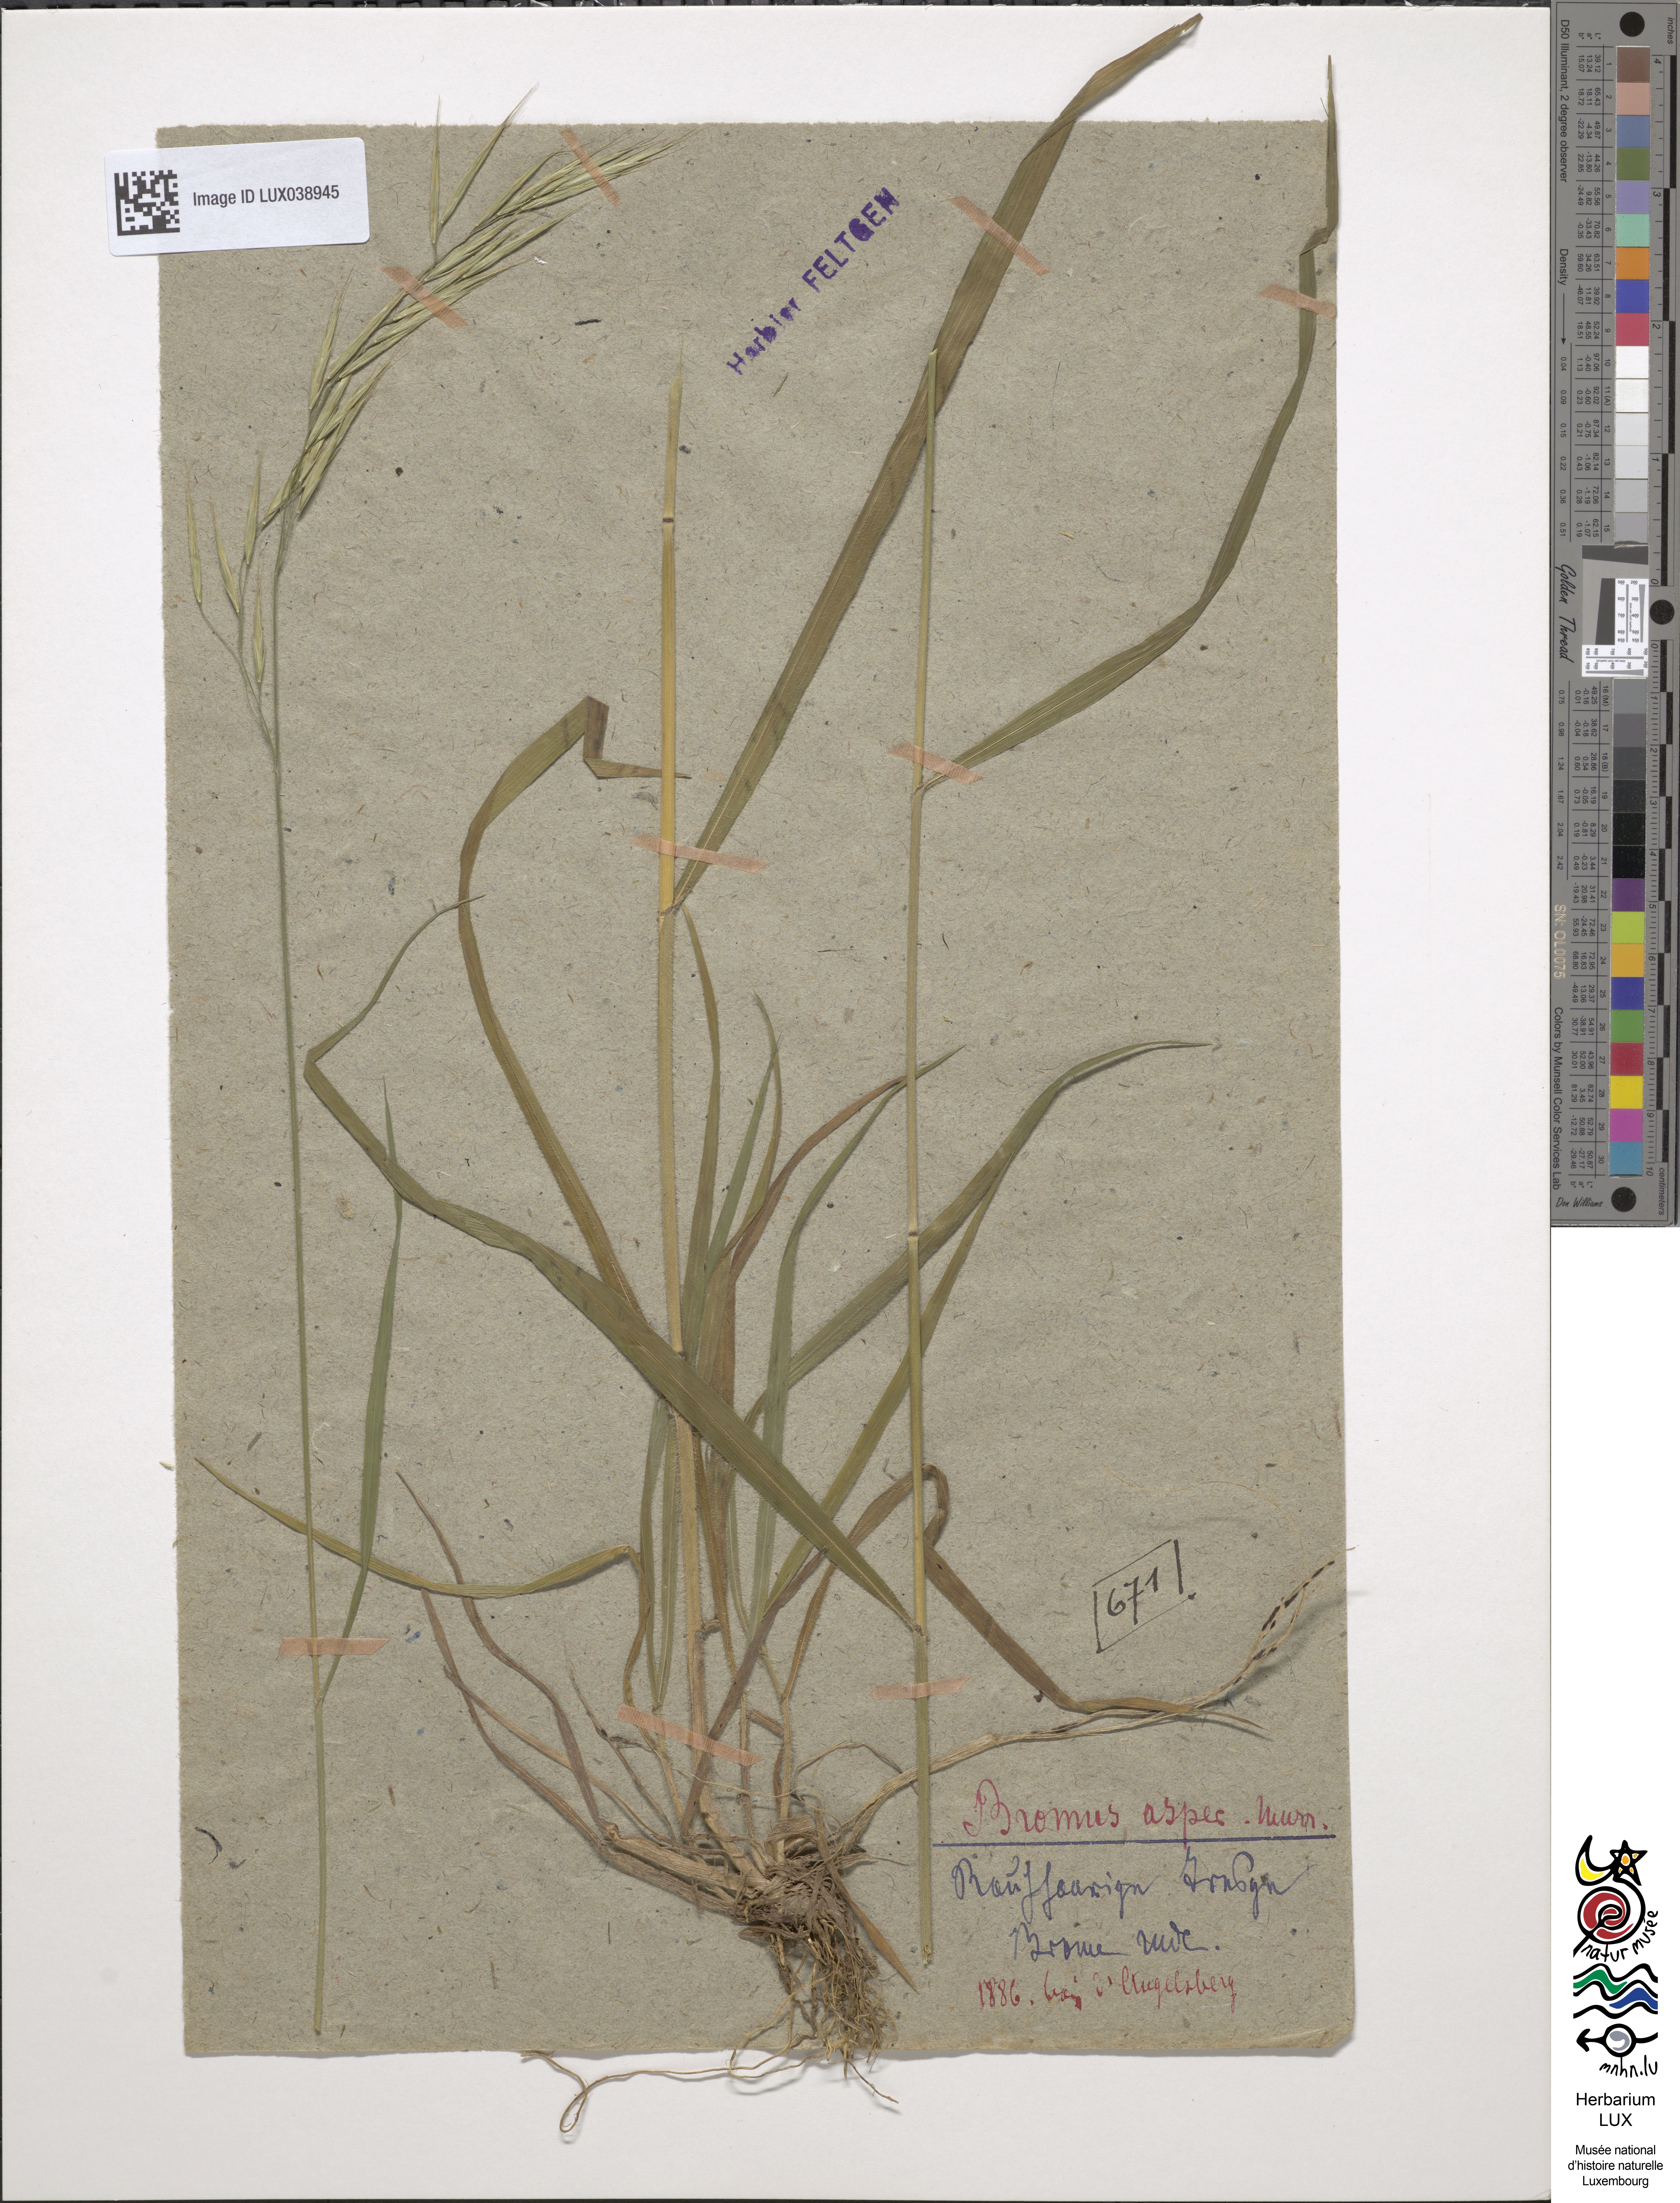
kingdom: Plantae
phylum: Tracheophyta
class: Liliopsida
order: Poales
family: Poaceae
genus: Bromus
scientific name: Bromus ramosus
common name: Hairy brome
